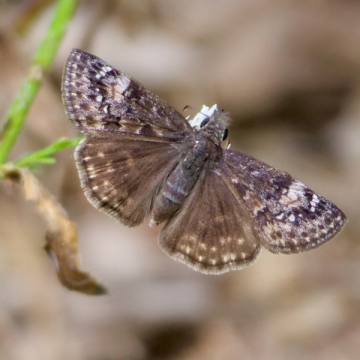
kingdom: Animalia
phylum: Arthropoda
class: Insecta
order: Lepidoptera
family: Hesperiidae
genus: Gesta
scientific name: Gesta
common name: Columbine Duskywing
